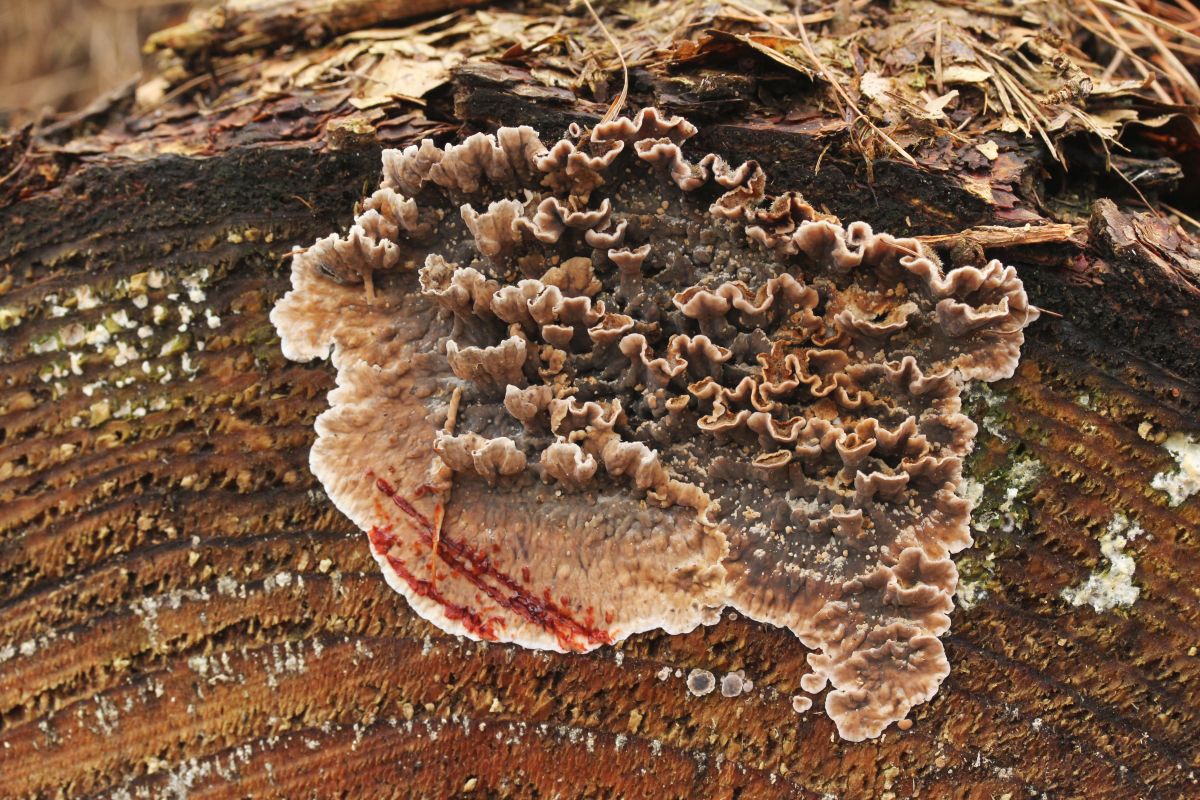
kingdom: Fungi
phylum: Basidiomycota
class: Agaricomycetes
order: Russulales
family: Stereaceae
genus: Stereum
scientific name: Stereum sanguinolentum
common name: blødende lædersvamp
